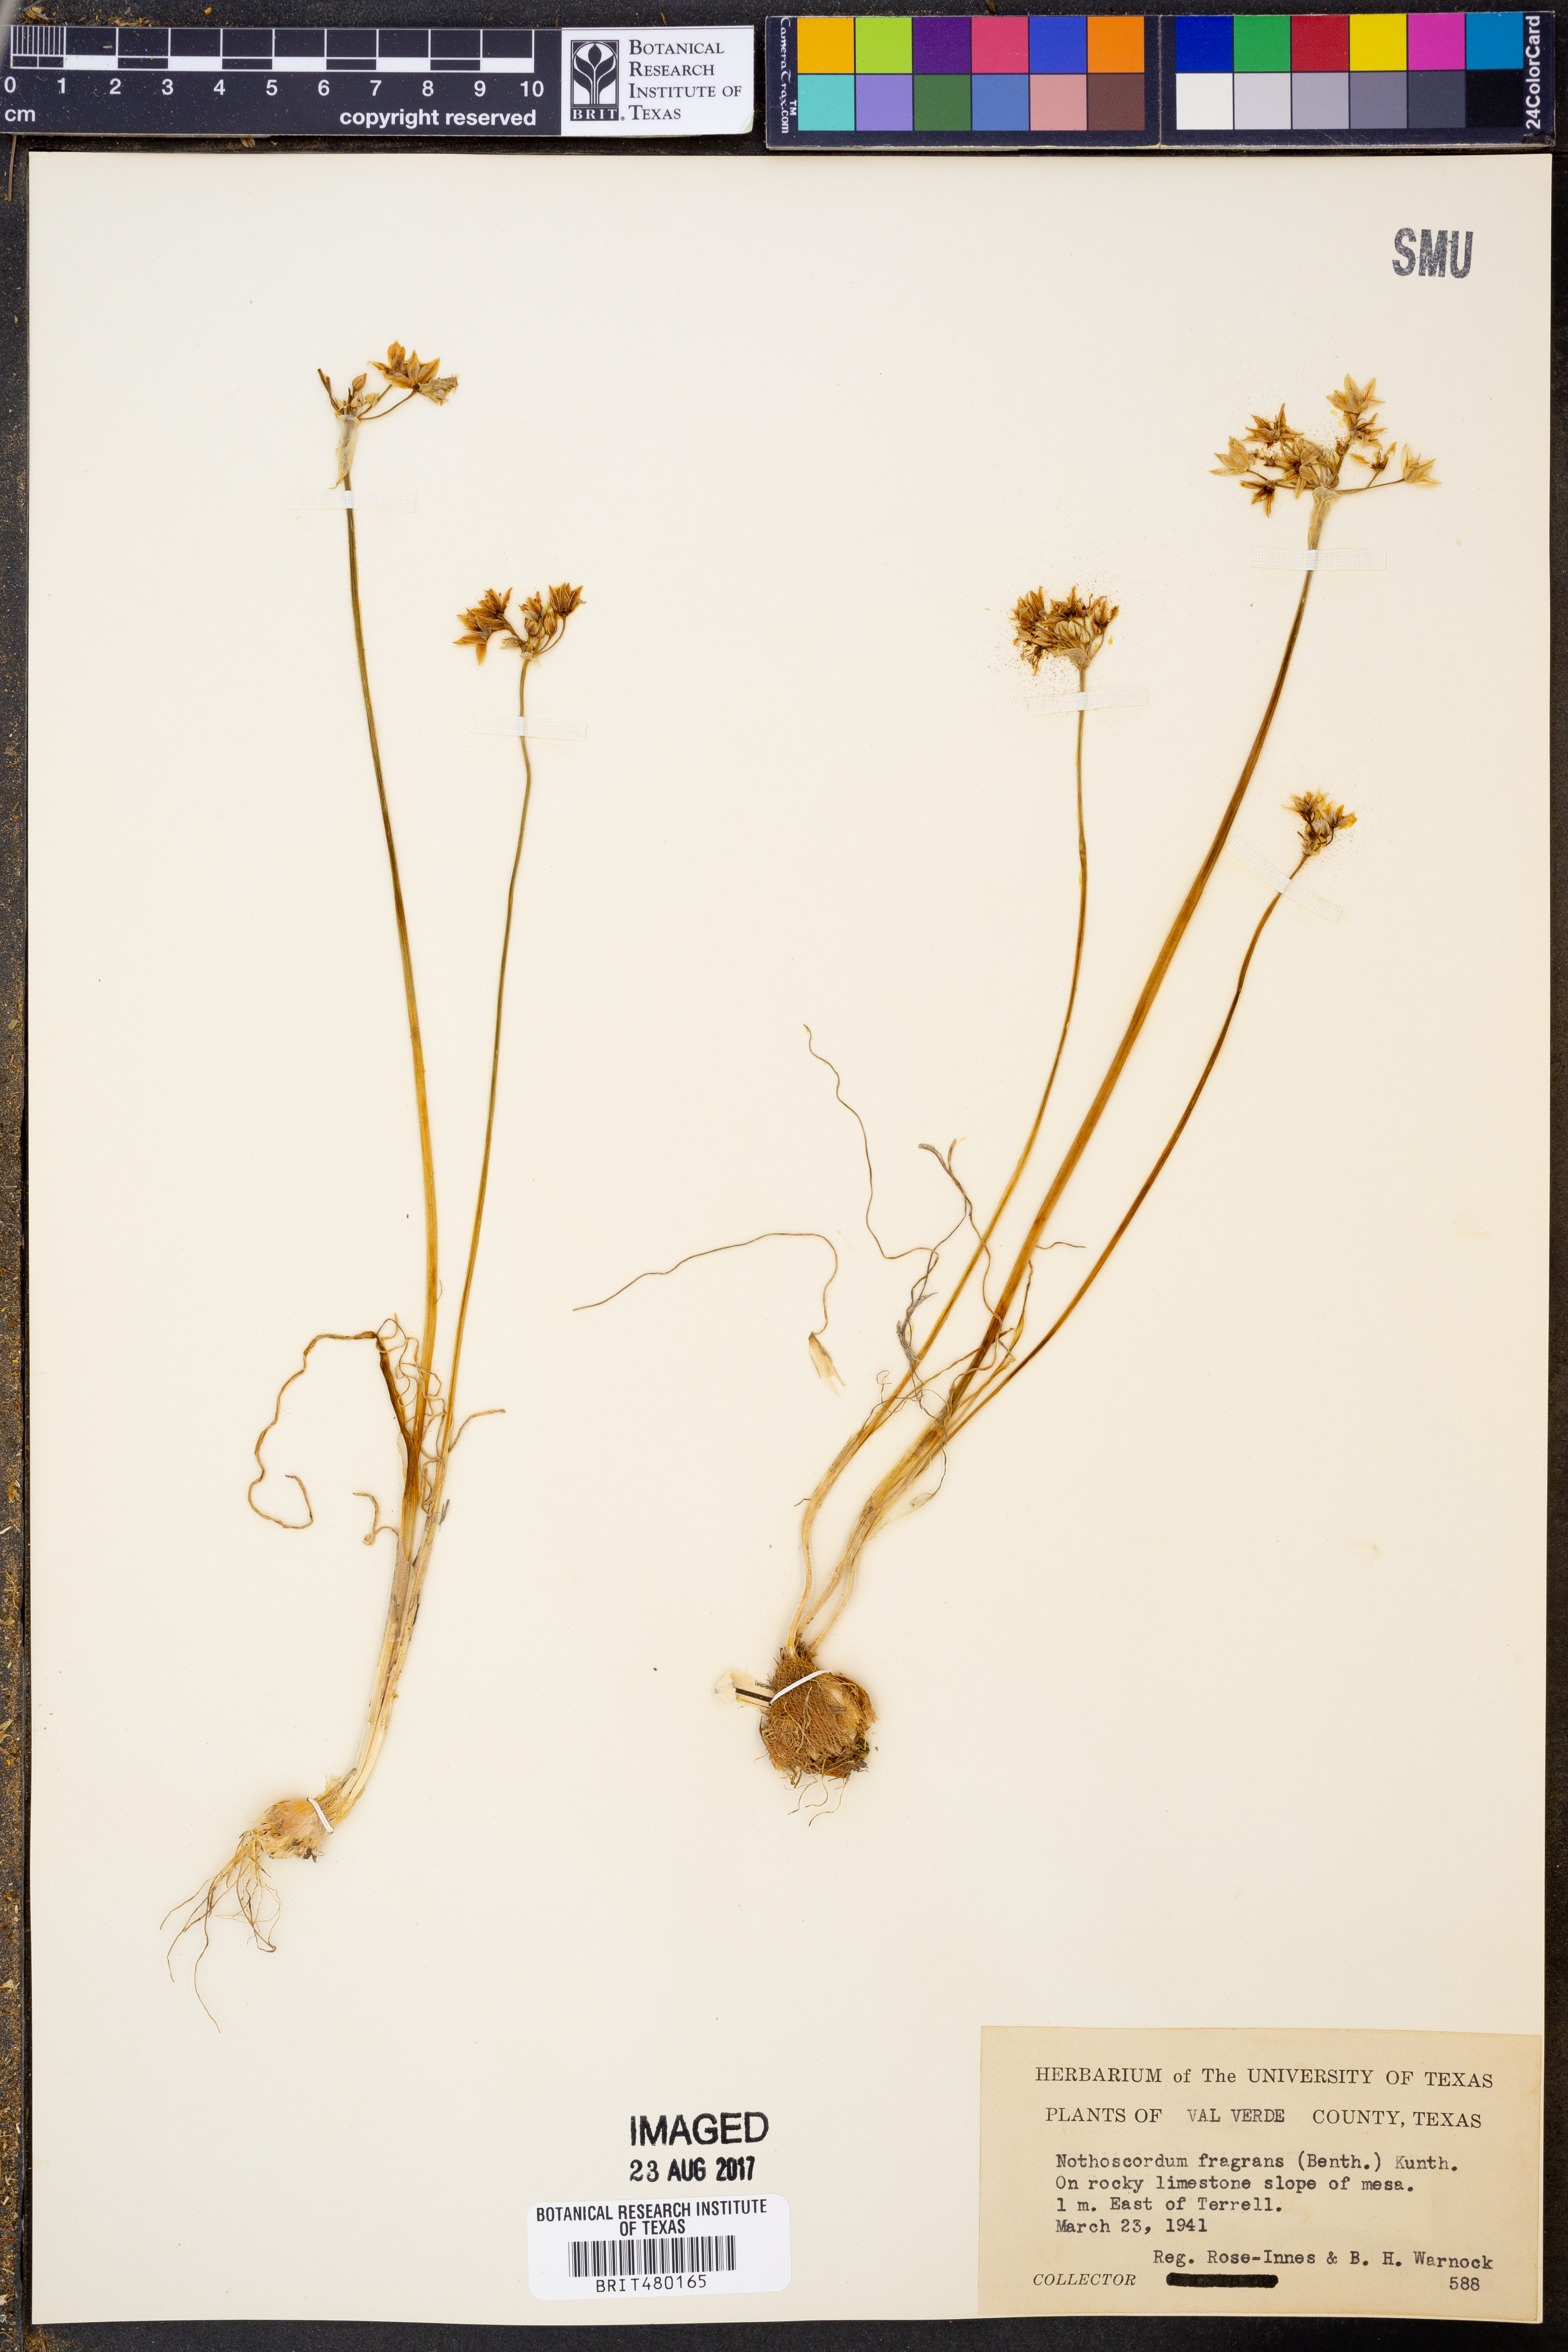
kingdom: Plantae
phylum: Tracheophyta
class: Liliopsida
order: Asparagales
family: Amaryllidaceae
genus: Nothoscordum
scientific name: Nothoscordum gracile
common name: Slender false garlic
